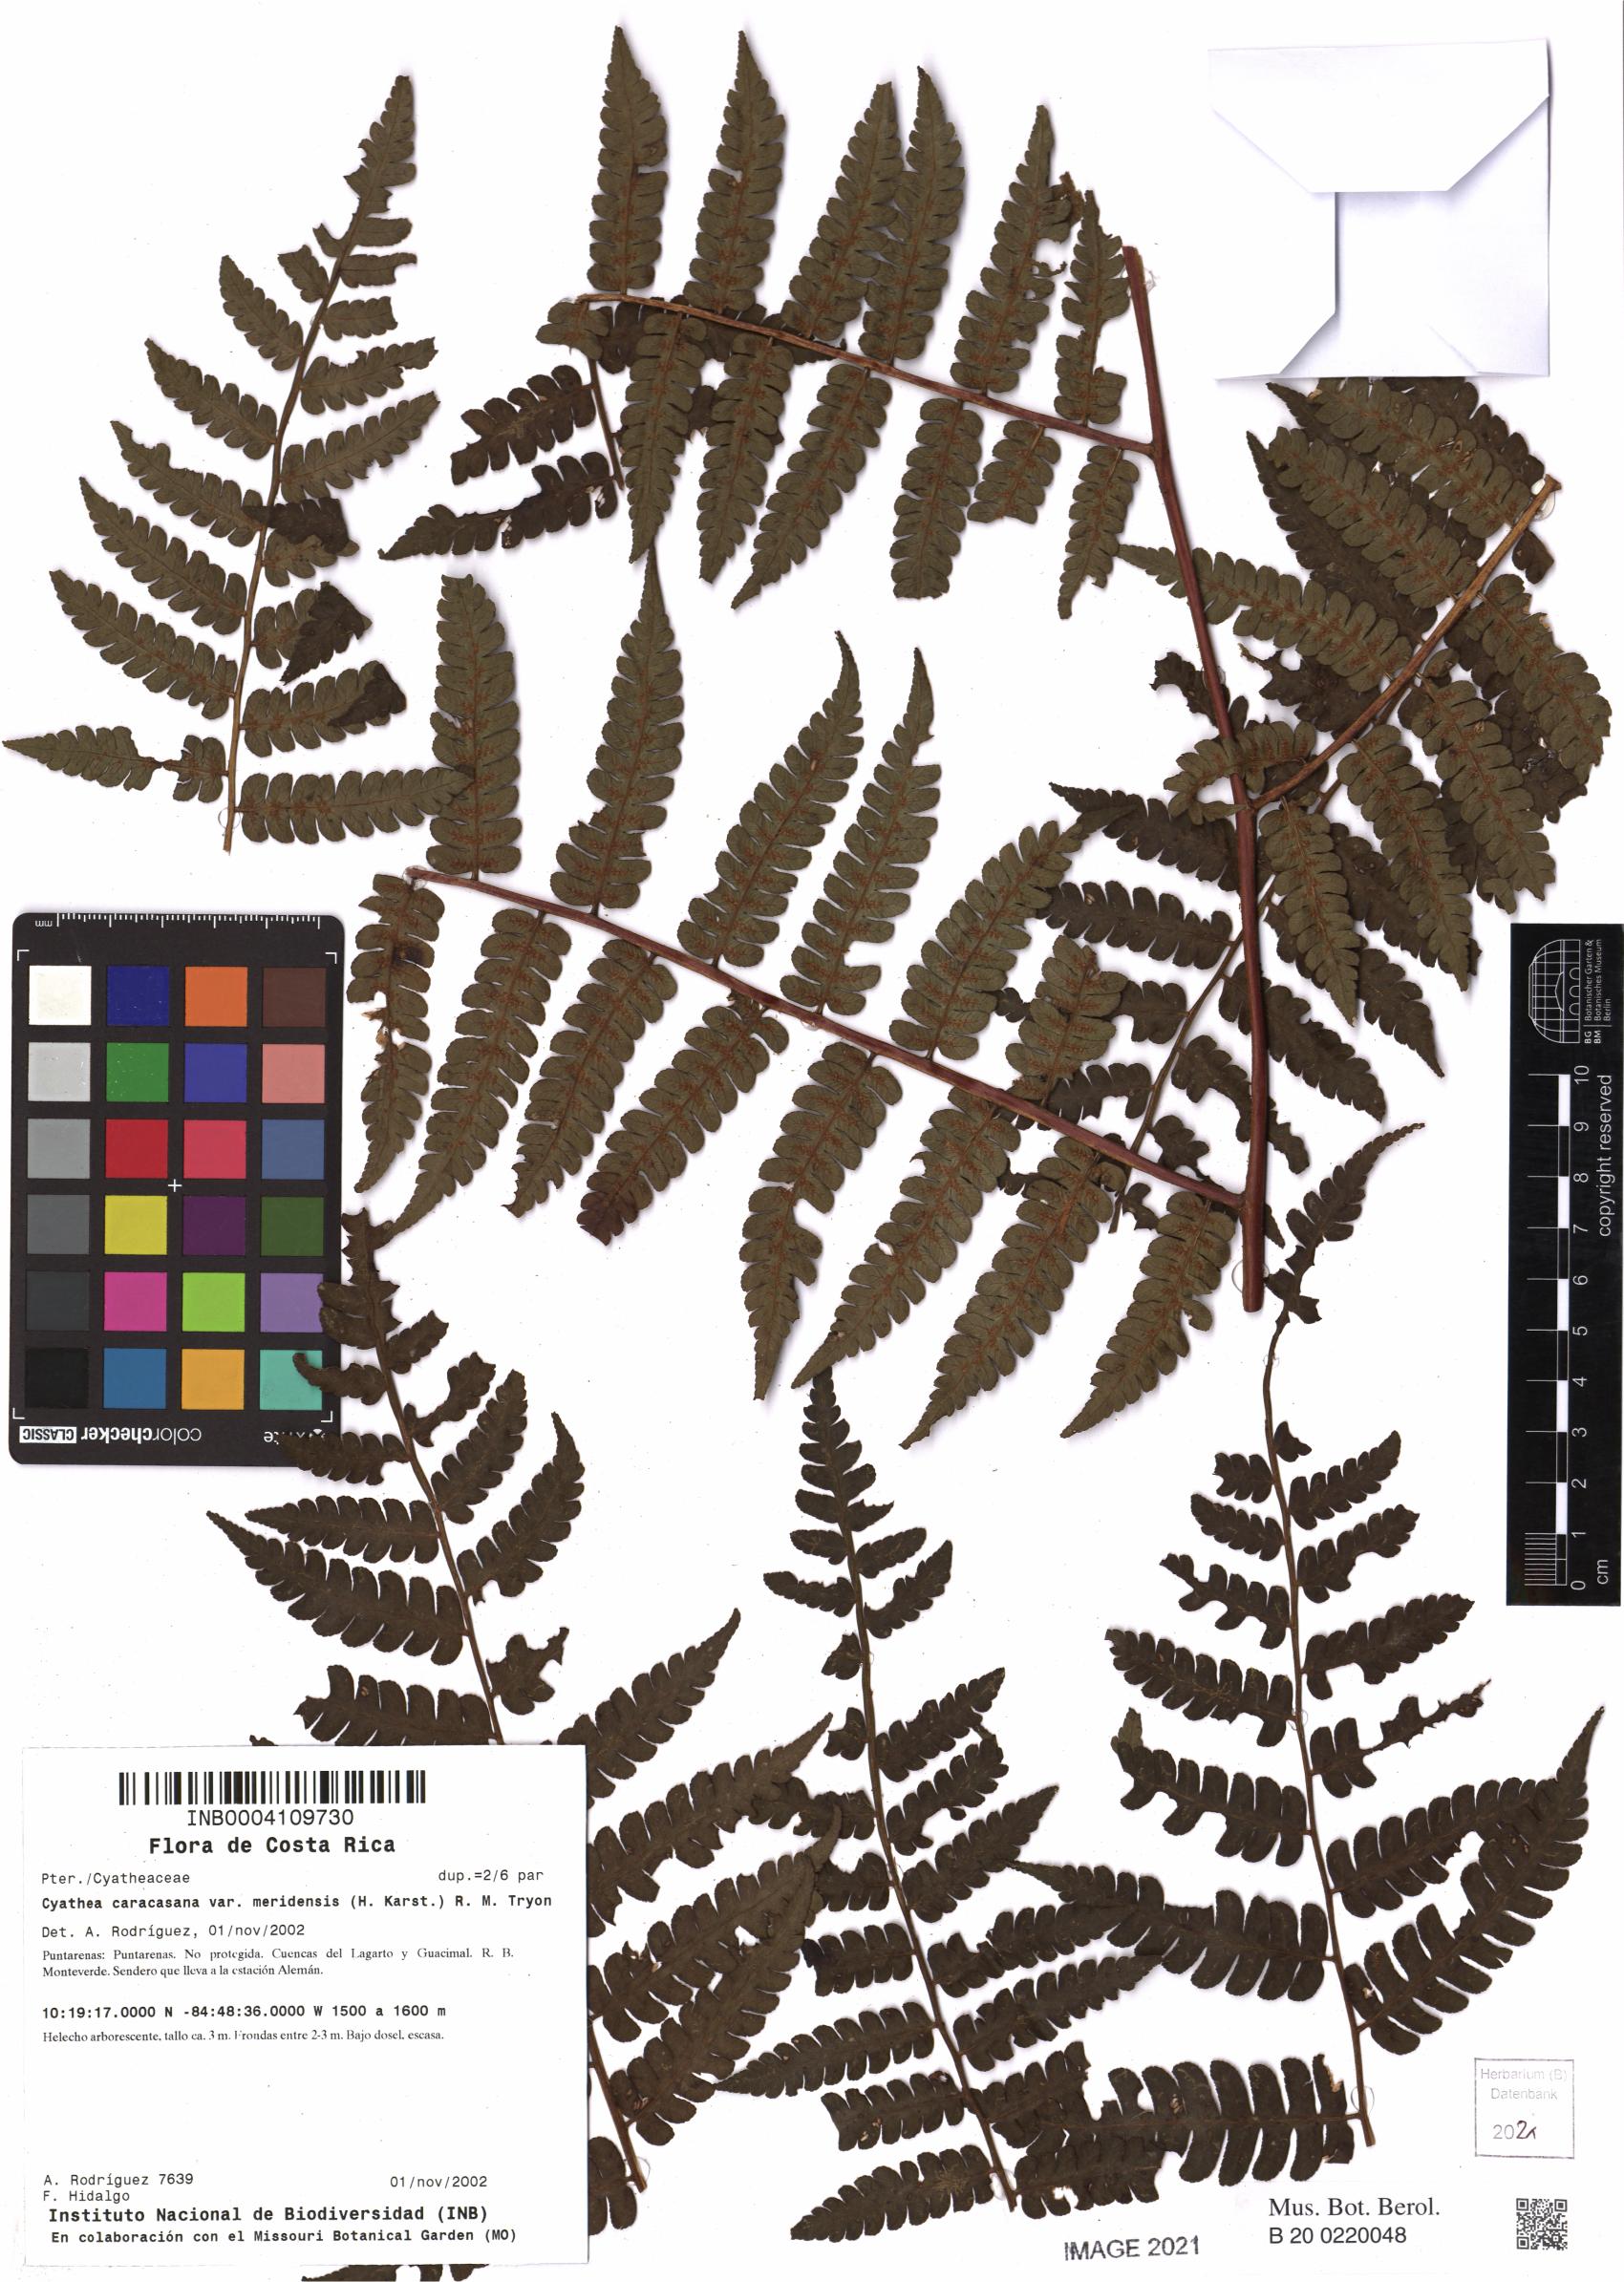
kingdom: Plantae
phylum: Tracheophyta
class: Polypodiopsida
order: Cyatheales
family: Cyatheaceae
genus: Cyathea
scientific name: Cyathea meridensis
